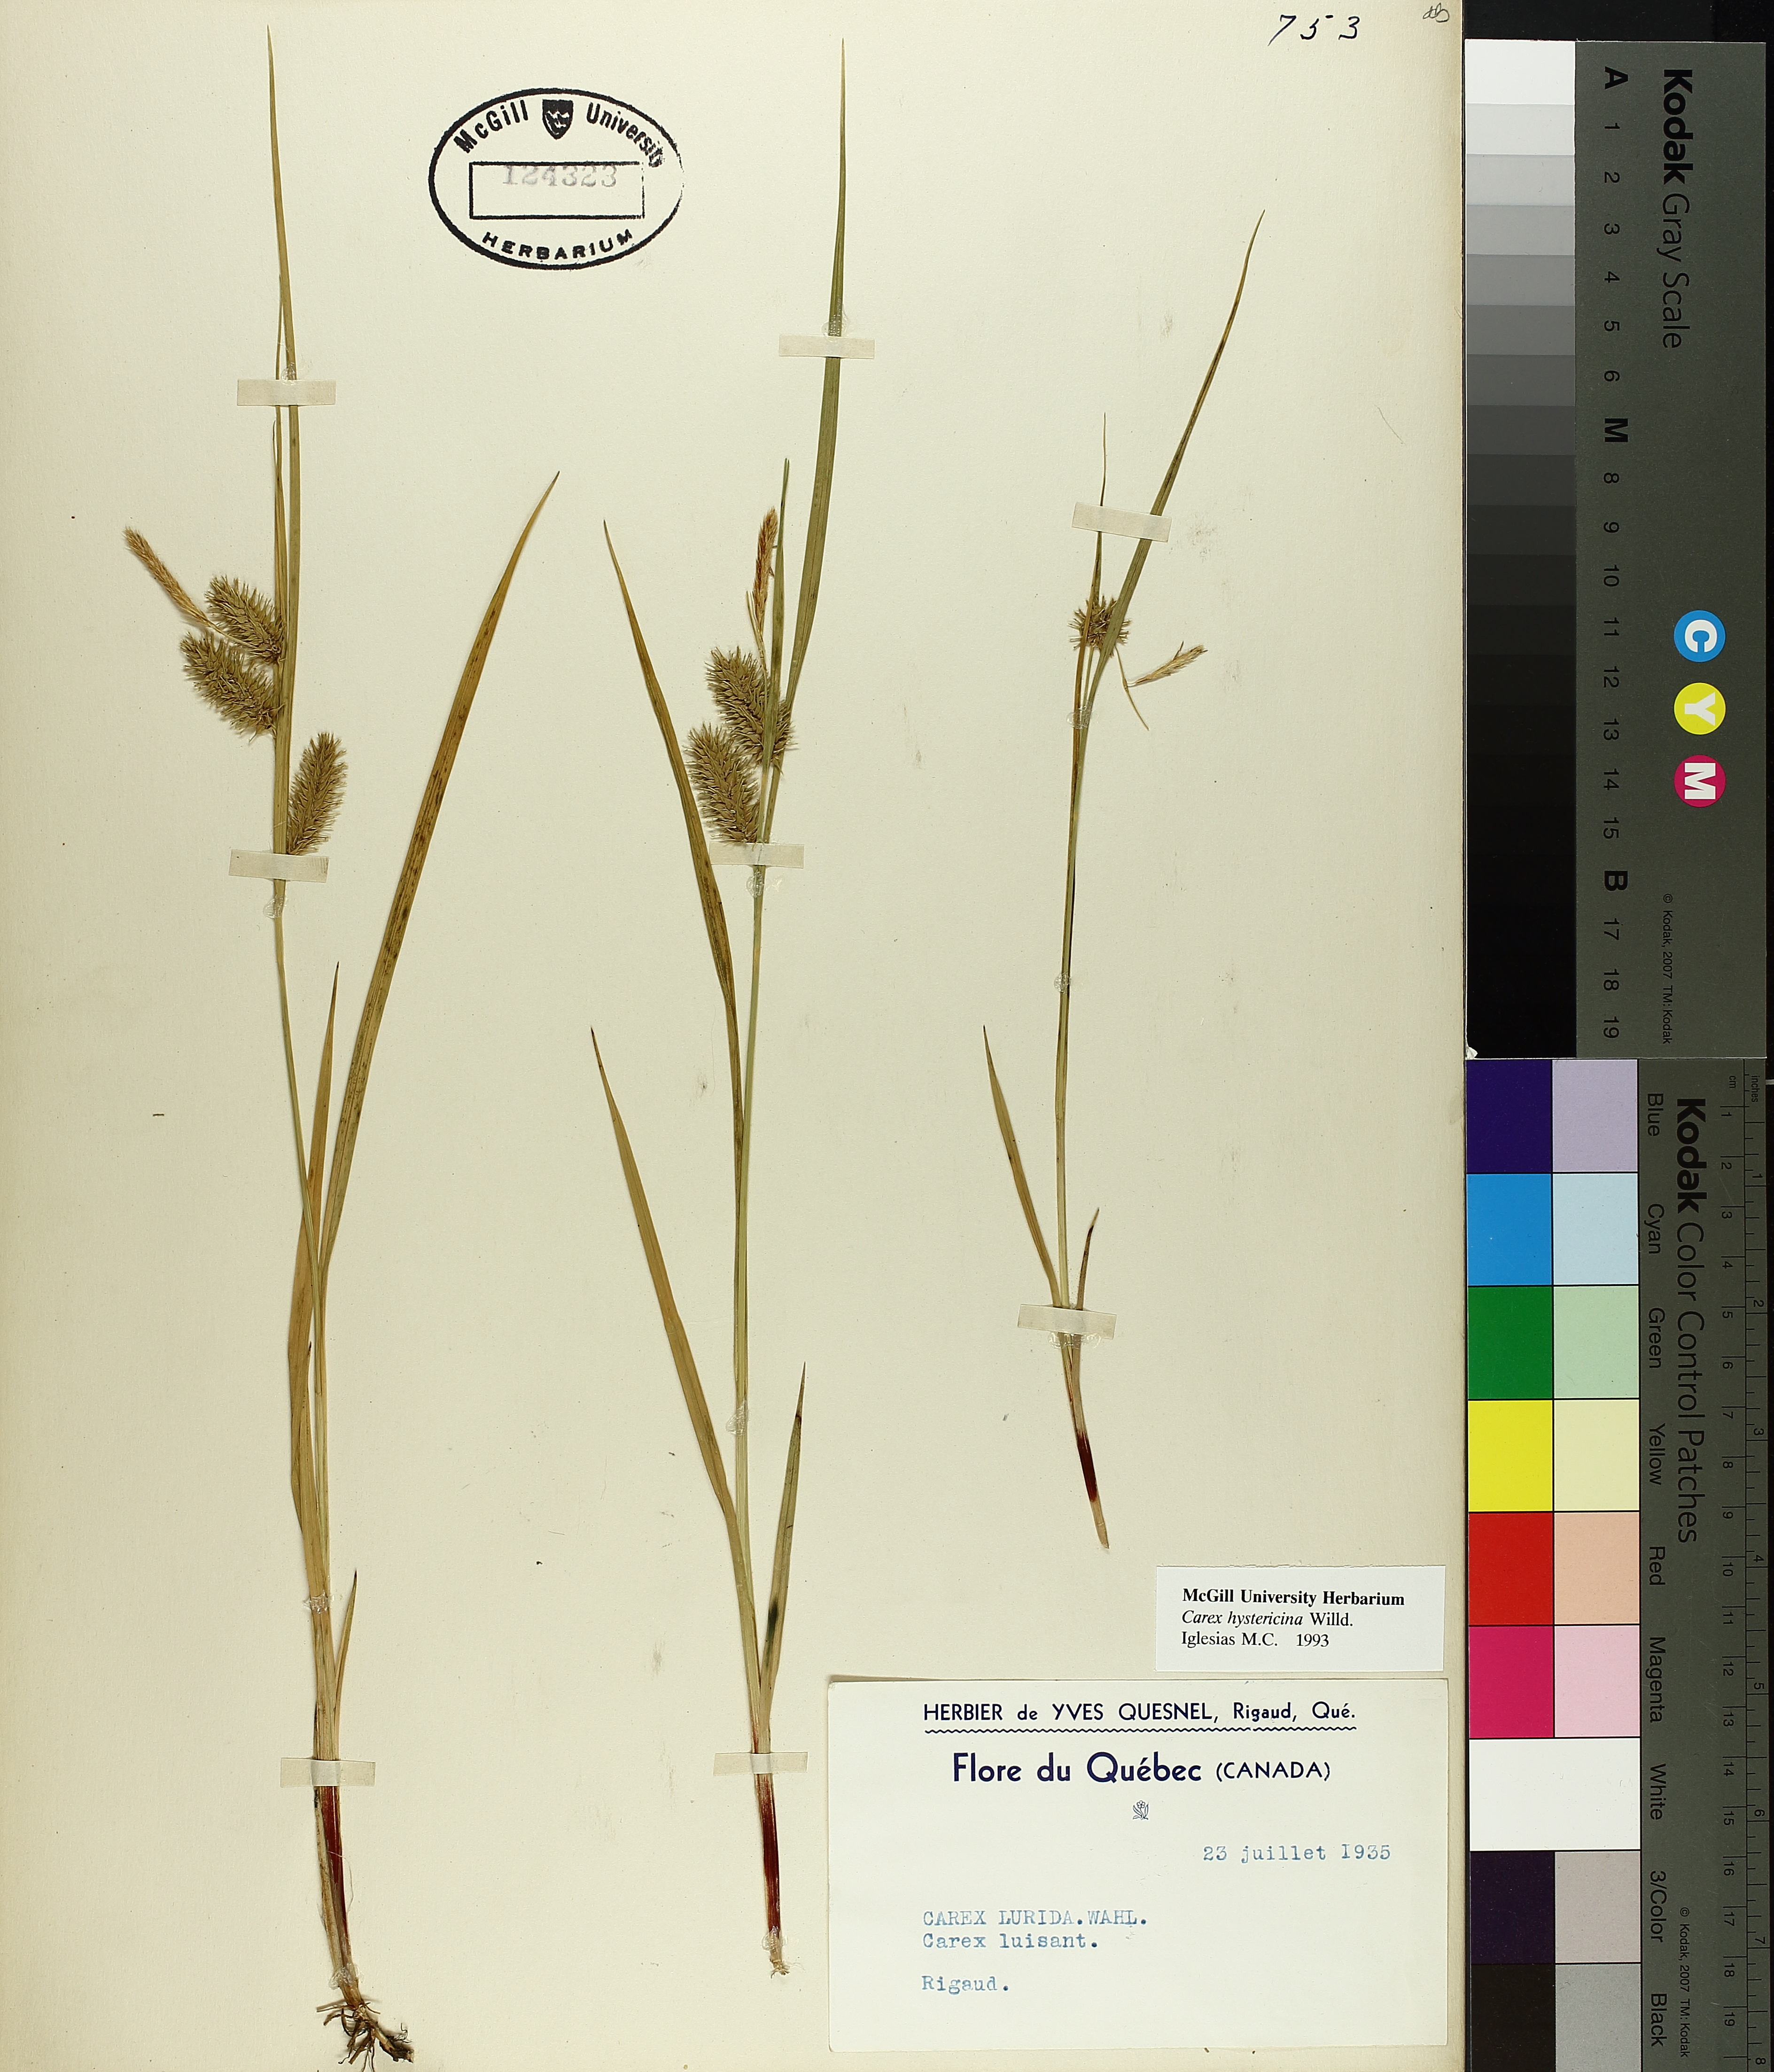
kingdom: Plantae
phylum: Tracheophyta
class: Liliopsida
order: Poales
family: Cyperaceae
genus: Carex
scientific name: Carex hystericina
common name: Bottlebrush sedge
